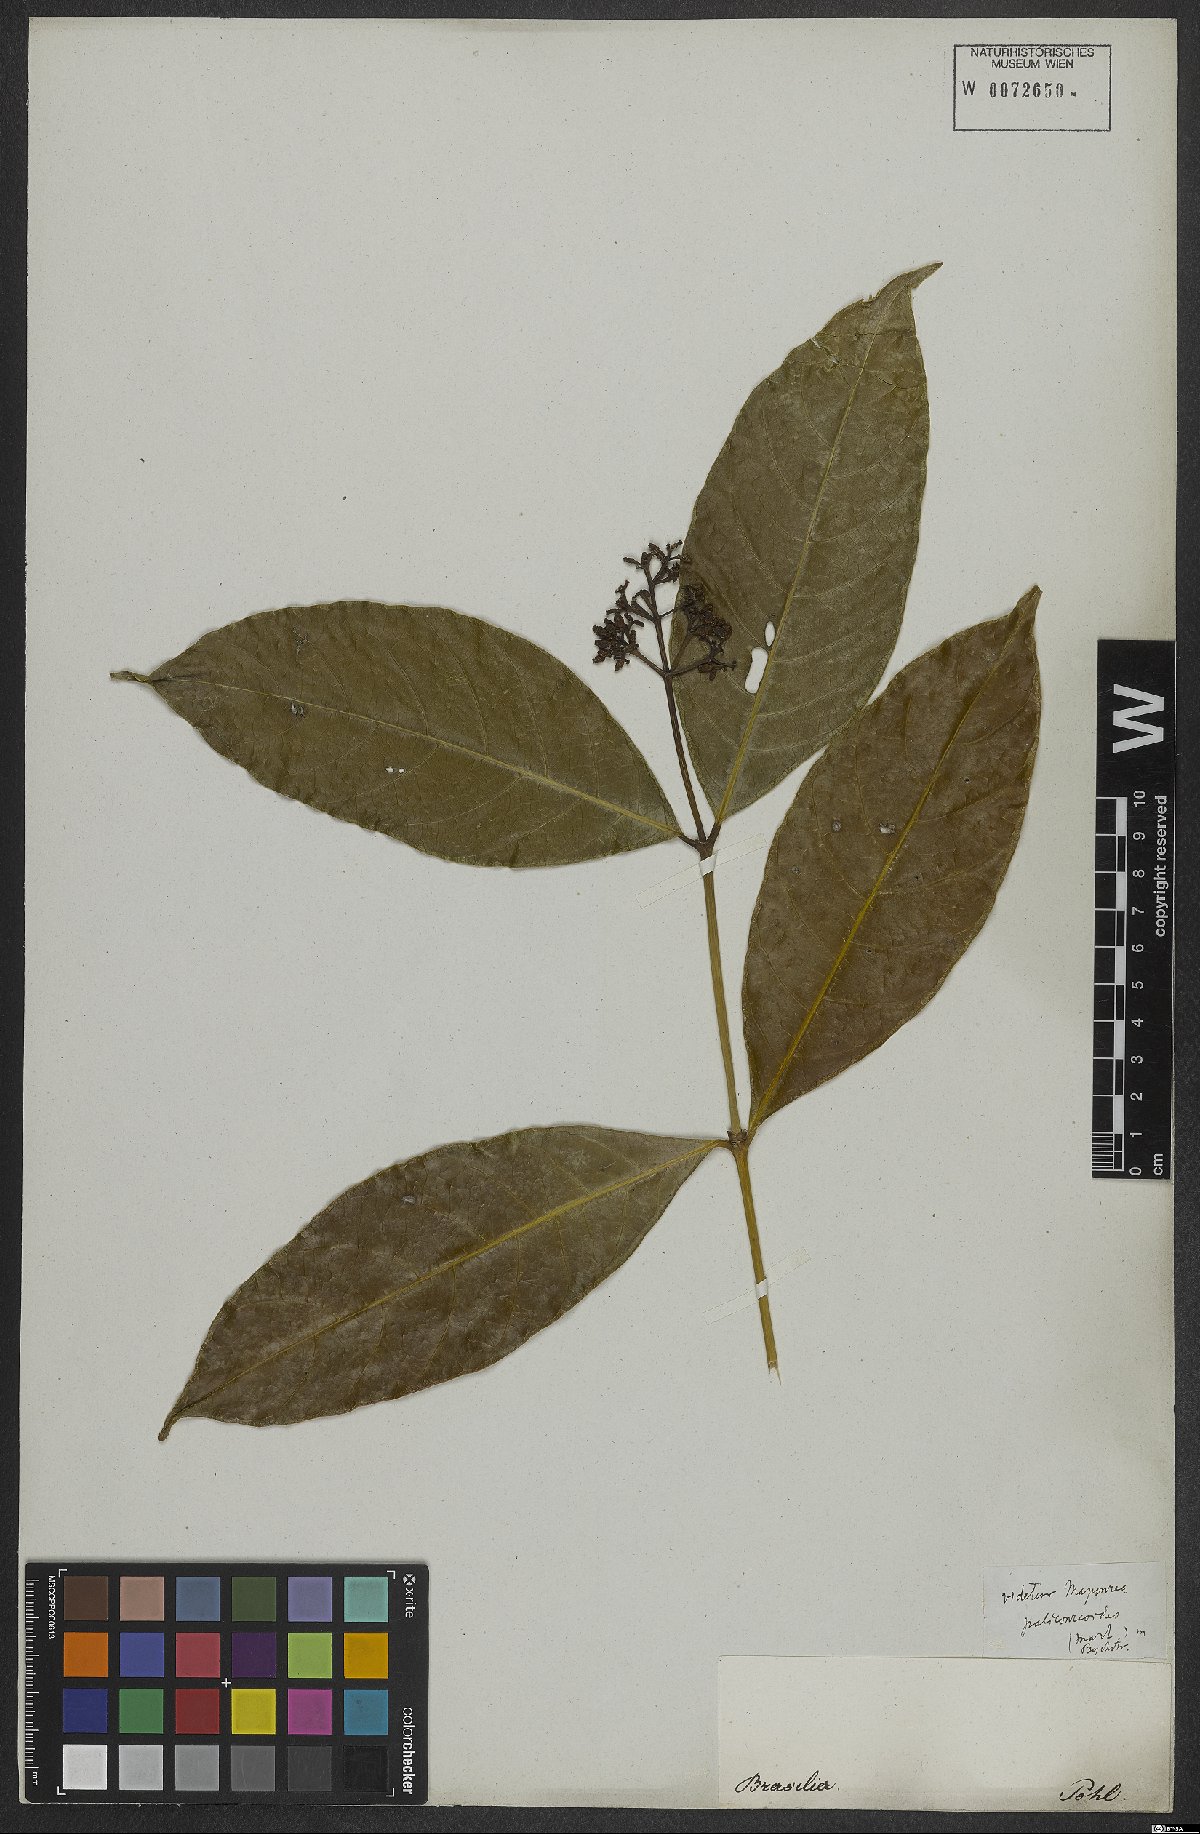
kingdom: Plantae
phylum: Tracheophyta
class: Magnoliopsida
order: Gentianales
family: Rubiaceae
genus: Rudgea
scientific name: Rudgea palicoureoides
